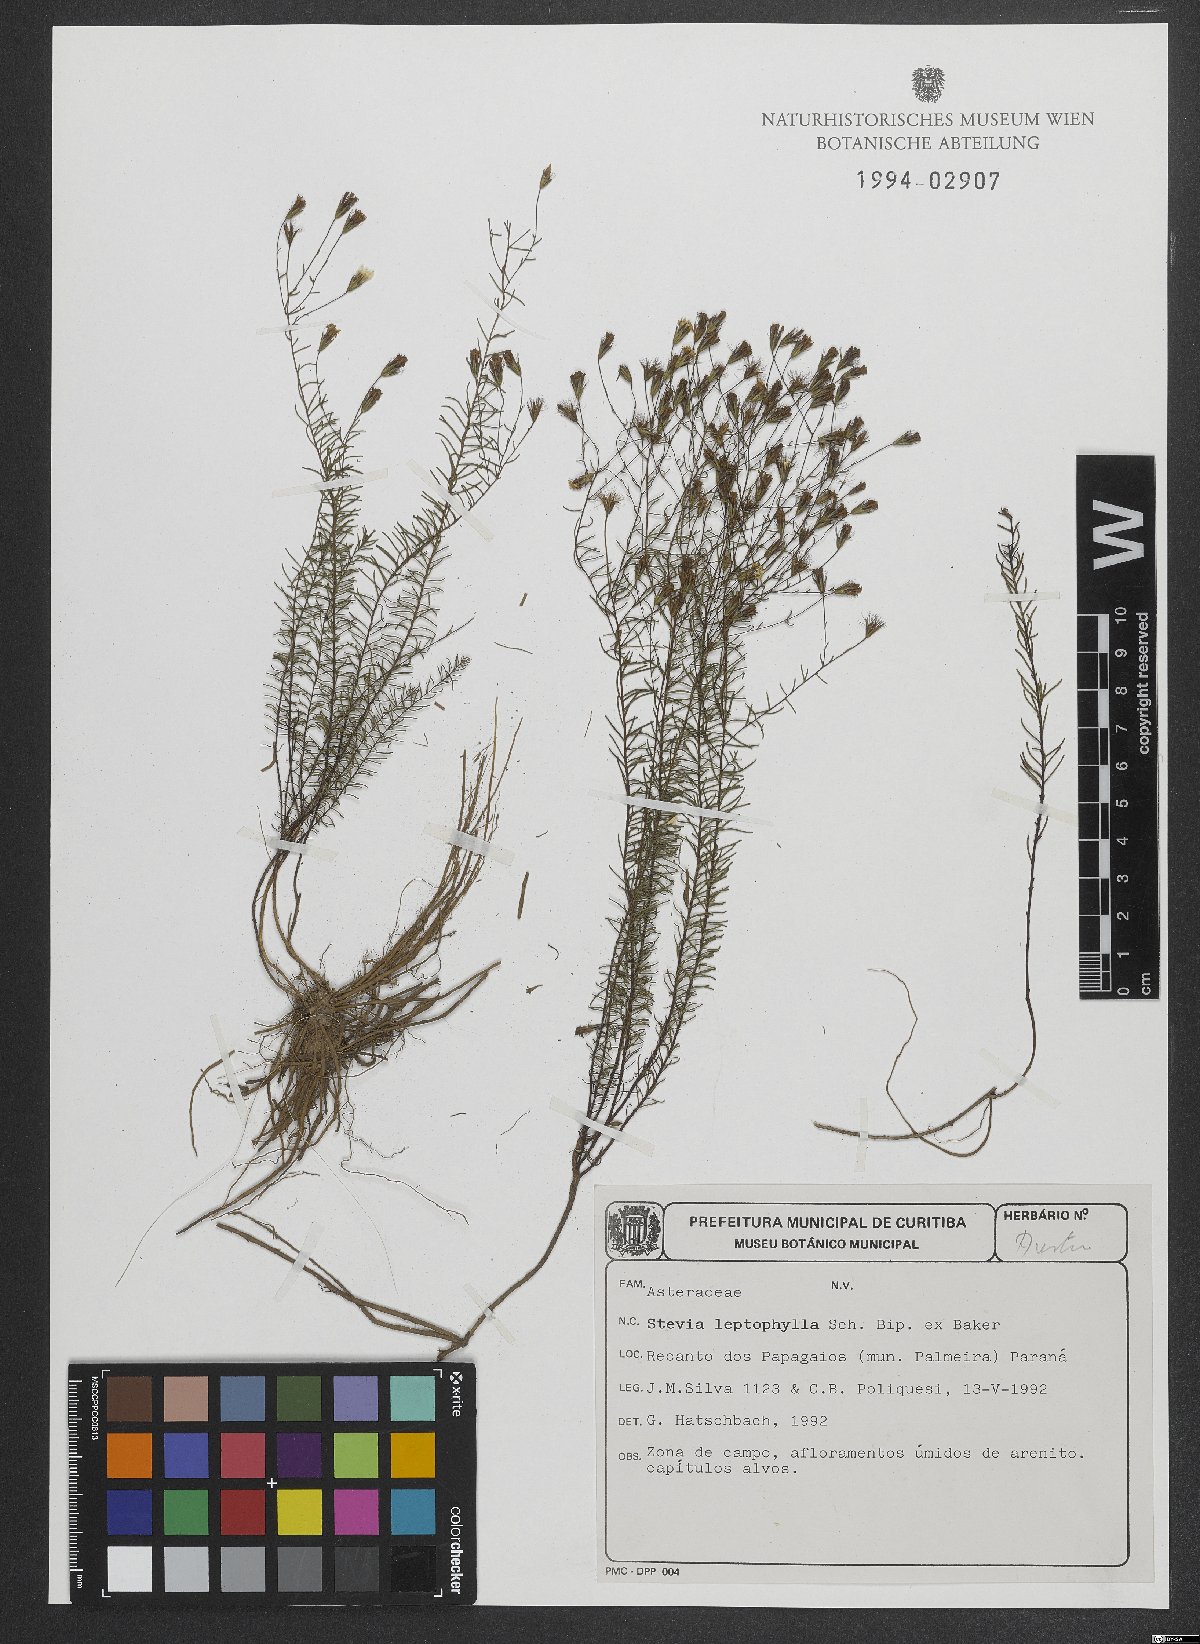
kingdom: Plantae
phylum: Tracheophyta
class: Magnoliopsida
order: Asterales
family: Asteraceae
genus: Stevia
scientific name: Stevia leptophylla
